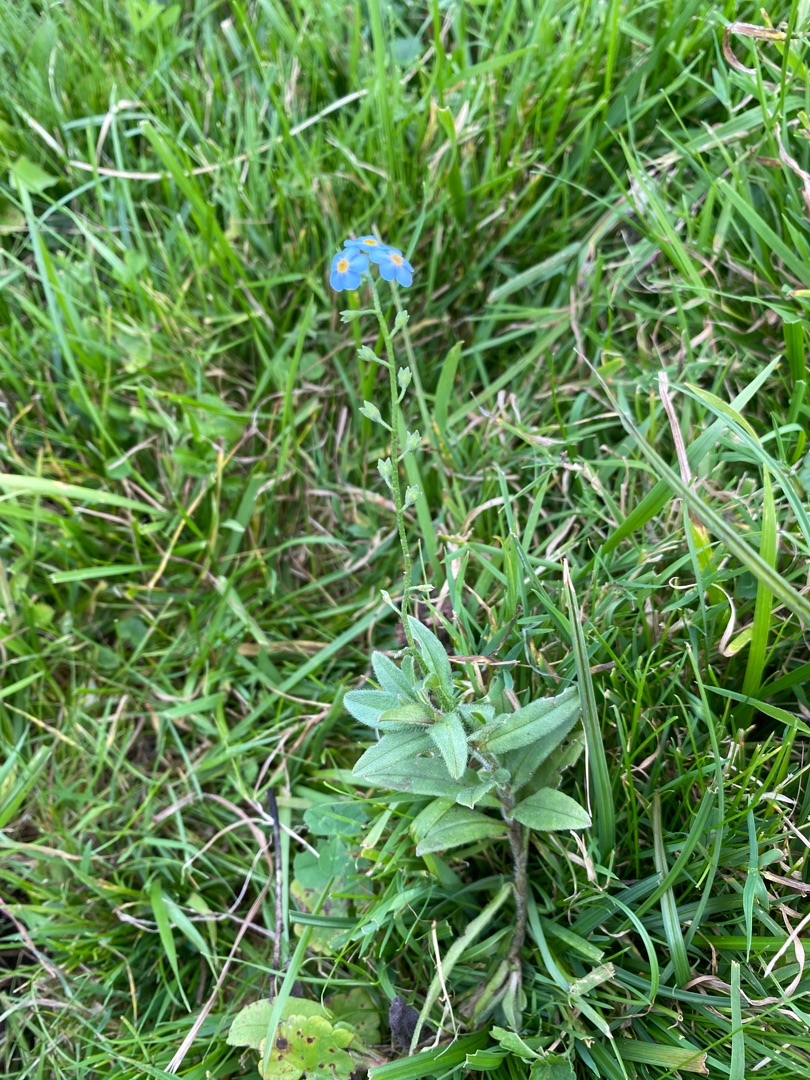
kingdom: Plantae
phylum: Tracheophyta
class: Magnoliopsida
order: Boraginales
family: Boraginaceae
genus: Myosotis
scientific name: Myosotis scorpioides
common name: Eng-forglemmigej
